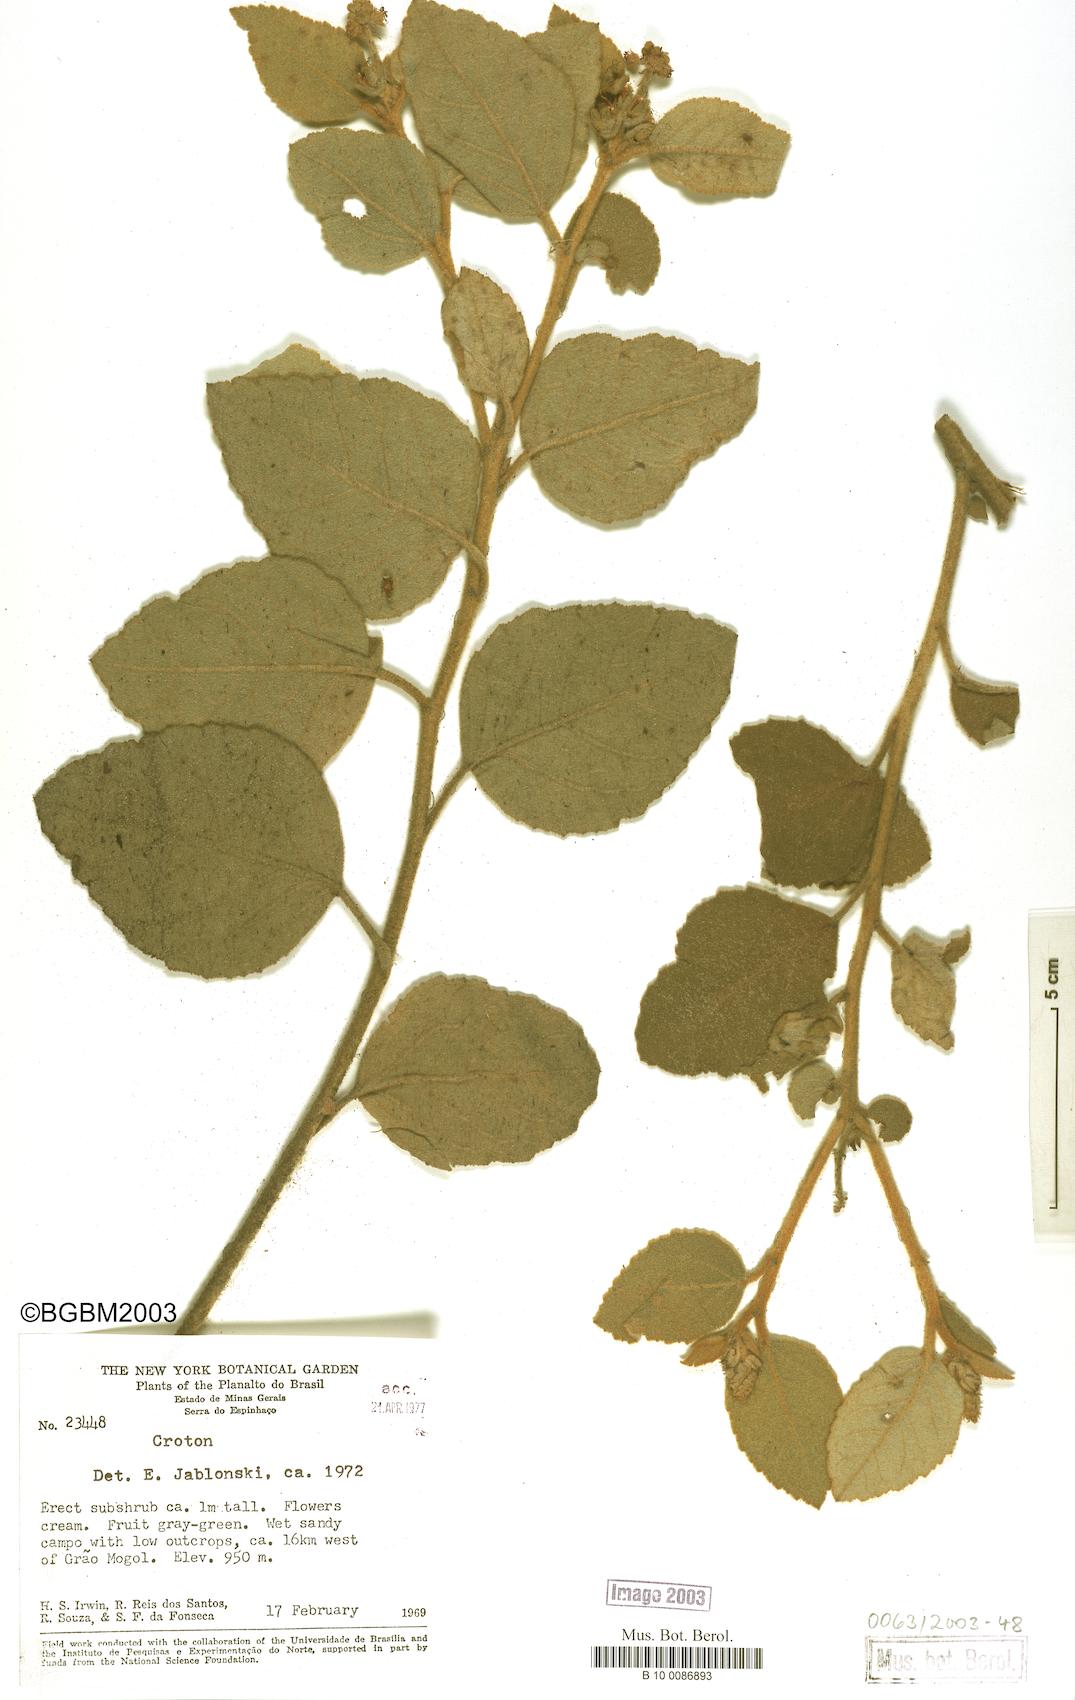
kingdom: Plantae
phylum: Tracheophyta
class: Magnoliopsida
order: Malpighiales
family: Euphorbiaceae
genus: Croton
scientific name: Croton
